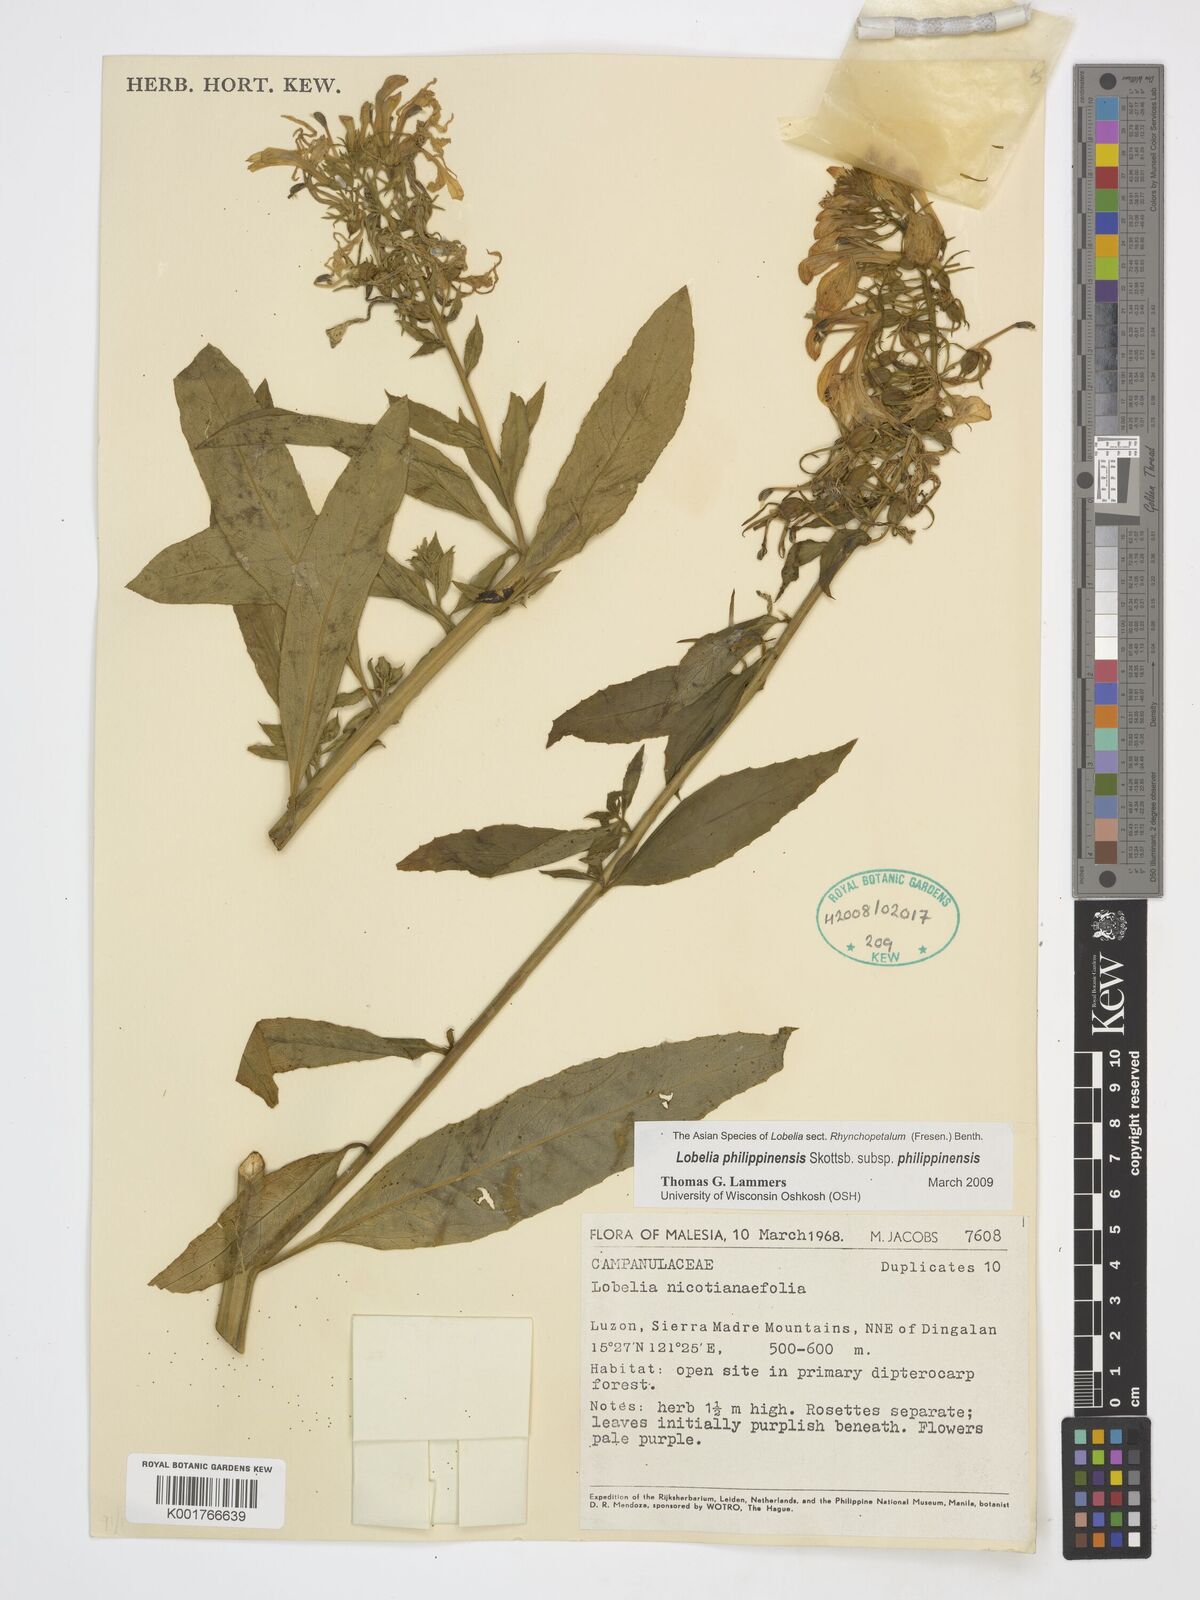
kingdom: Plantae
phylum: Tracheophyta
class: Magnoliopsida
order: Asterales
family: Campanulaceae
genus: Lobelia
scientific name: Lobelia philippinensis
